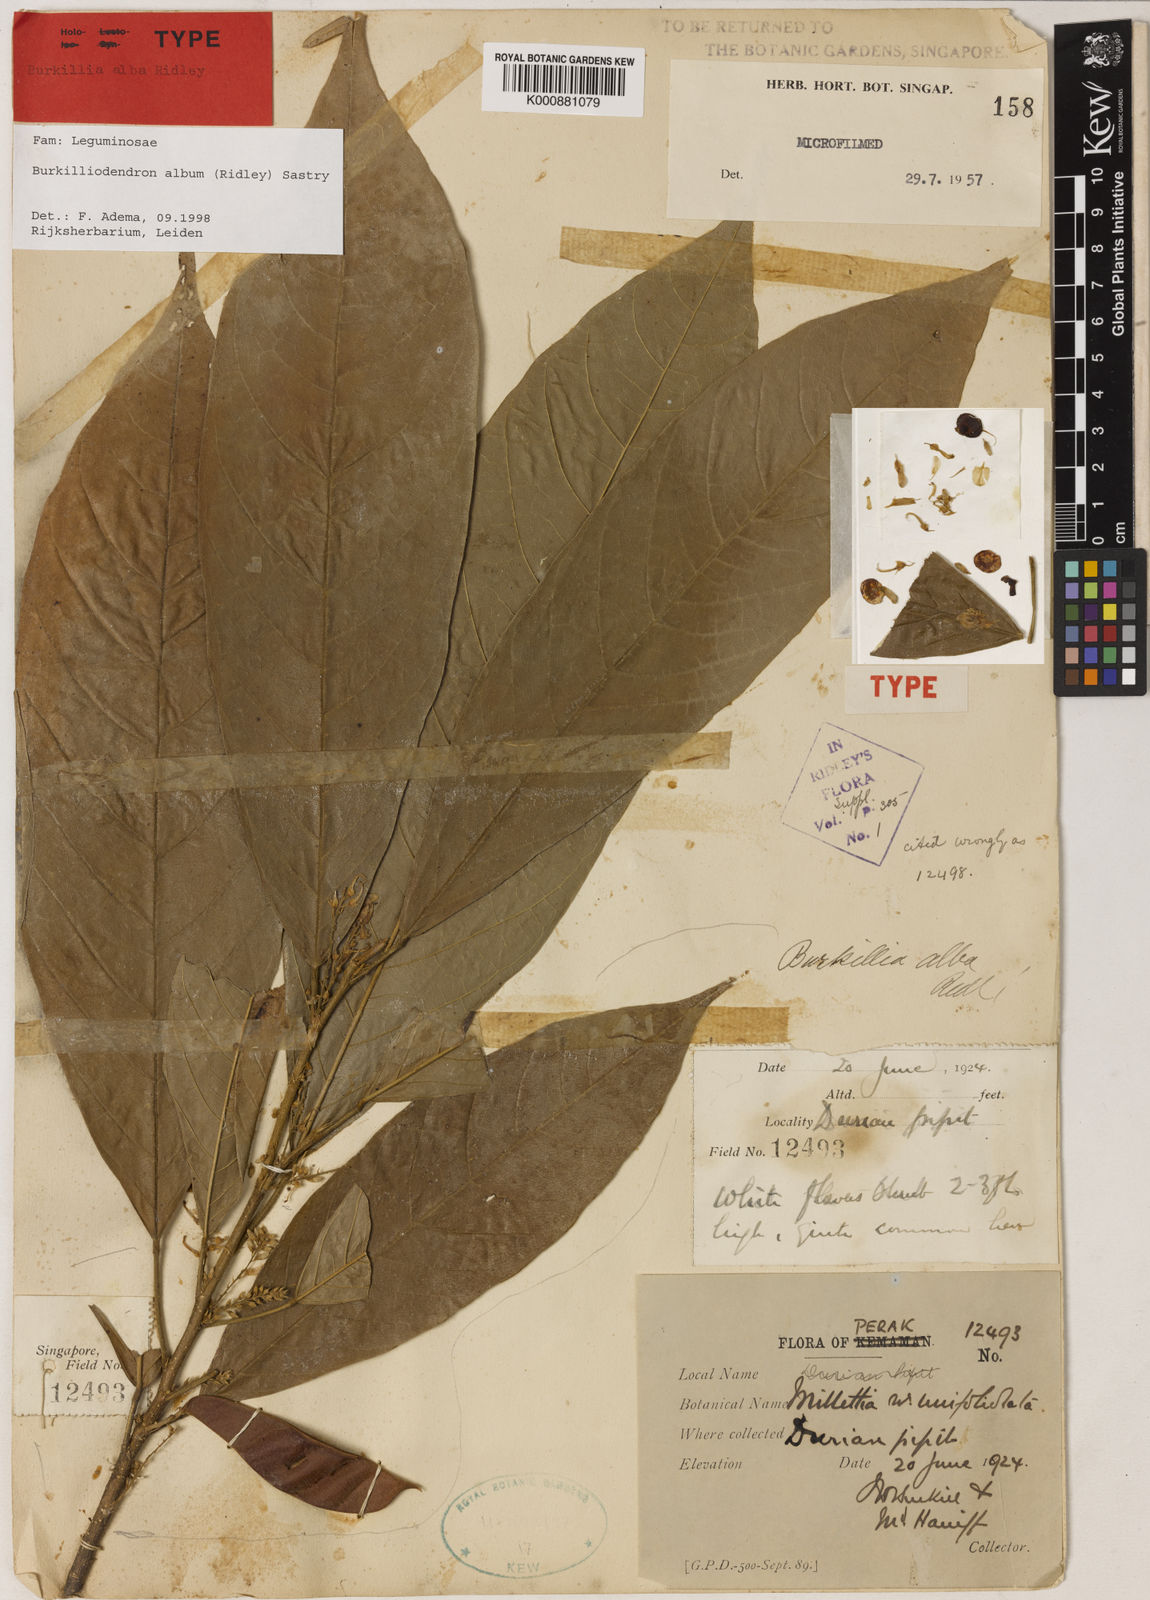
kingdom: Plantae
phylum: Tracheophyta
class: Magnoliopsida
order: Fabales
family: Fabaceae
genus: Oxytropis
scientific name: Oxytropis lazica
